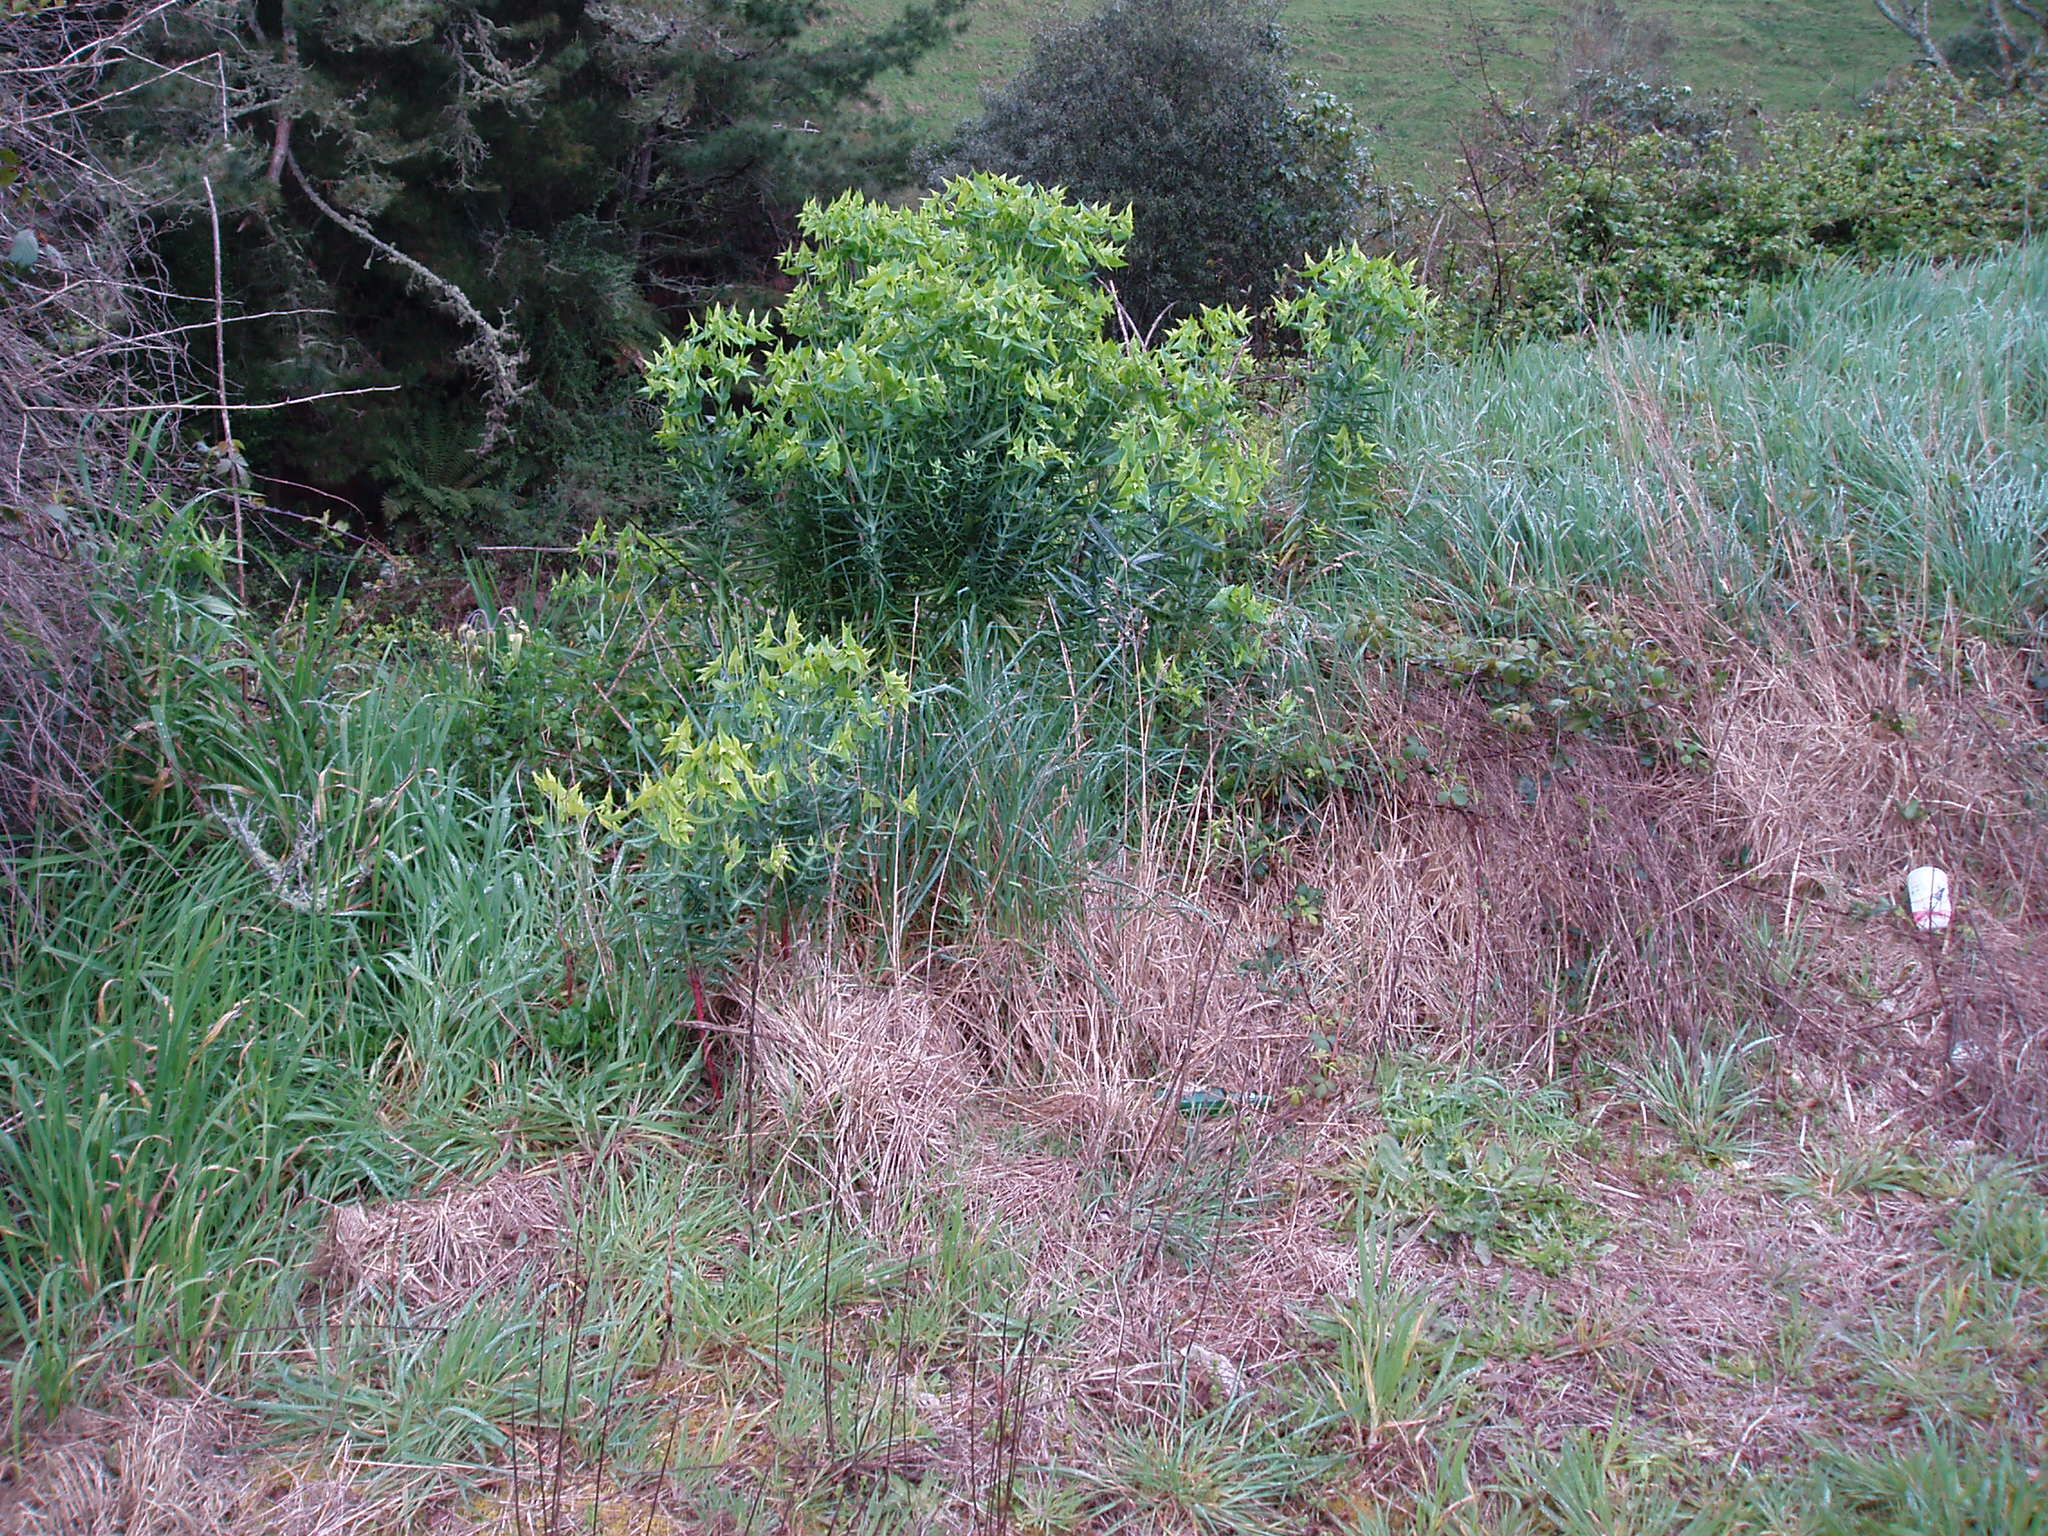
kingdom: Plantae
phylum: Tracheophyta
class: Magnoliopsida
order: Malpighiales
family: Euphorbiaceae
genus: Euphorbia
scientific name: Euphorbia lathyris
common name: Caper spurge
